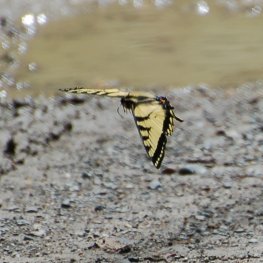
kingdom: Animalia
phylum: Arthropoda
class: Insecta
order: Lepidoptera
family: Papilionidae
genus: Pterourus
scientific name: Pterourus canadensis
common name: Canadian Tiger Swallowtail
